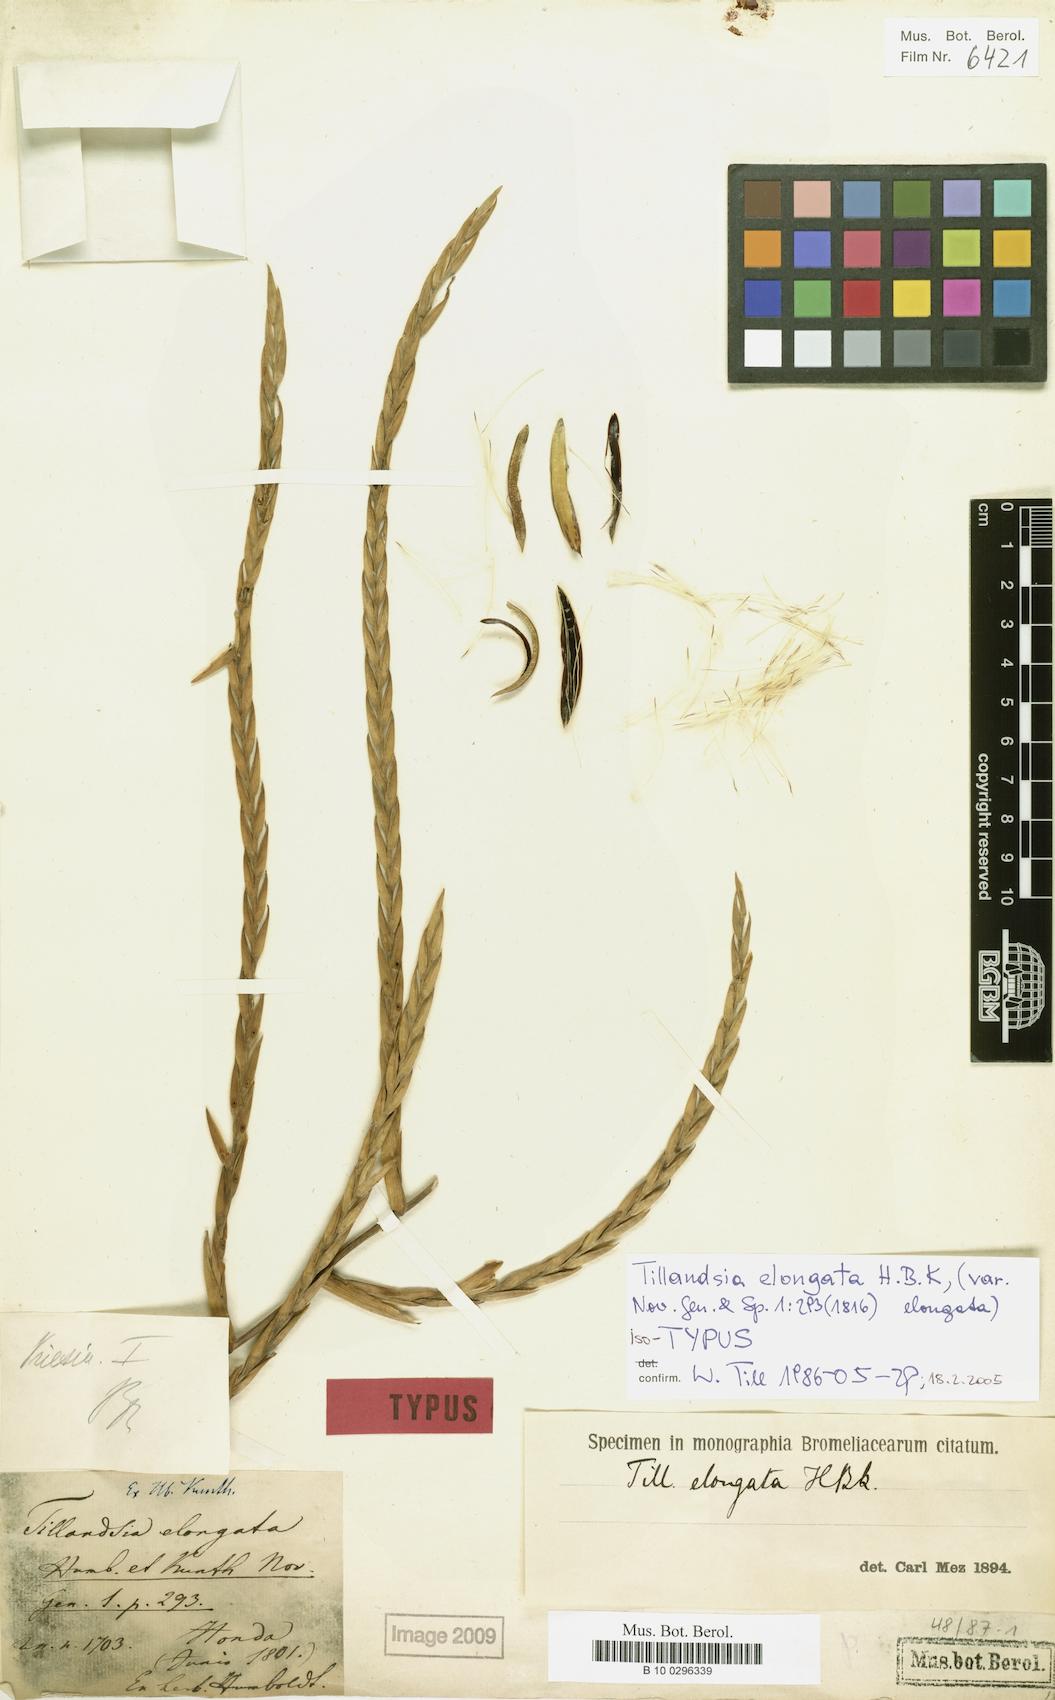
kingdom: Plantae
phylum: Tracheophyta
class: Liliopsida
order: Poales
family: Bromeliaceae
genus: Tillandsia
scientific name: Tillandsia elongata
